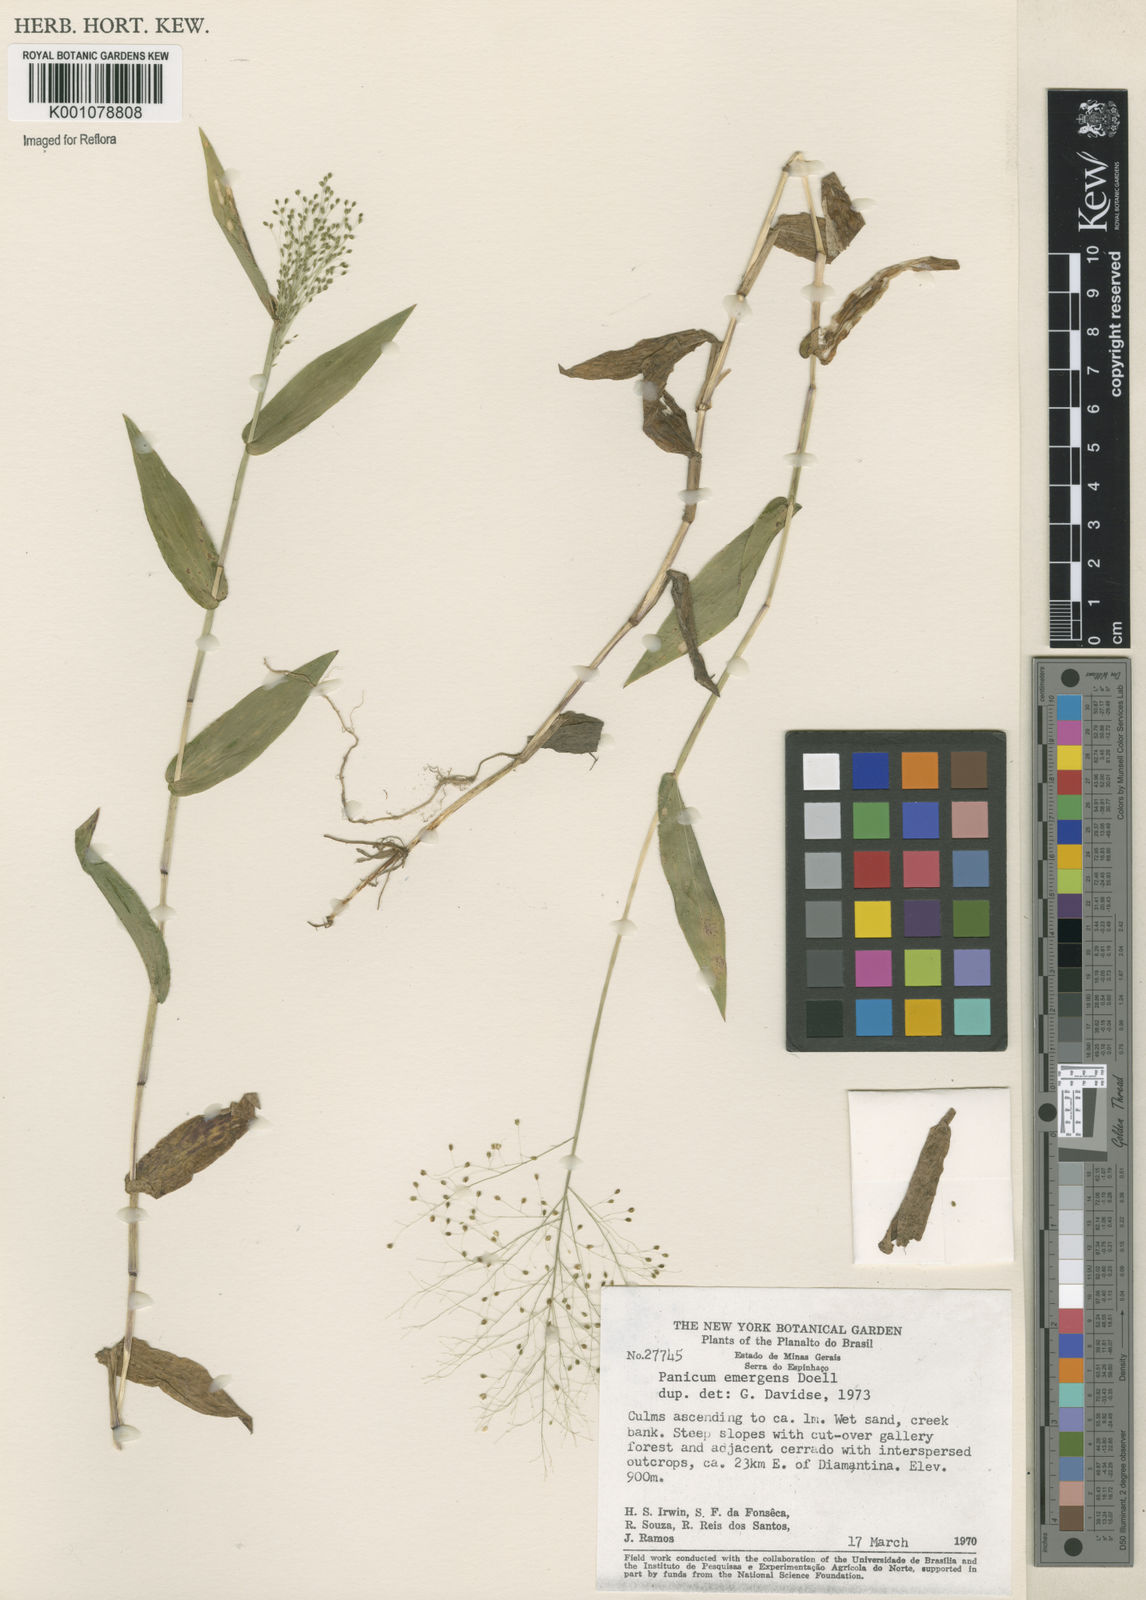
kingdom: Plantae
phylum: Tracheophyta
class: Liliopsida
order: Poales
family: Poaceae
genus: Trichanthecium
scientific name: Trichanthecium schwackeanum
